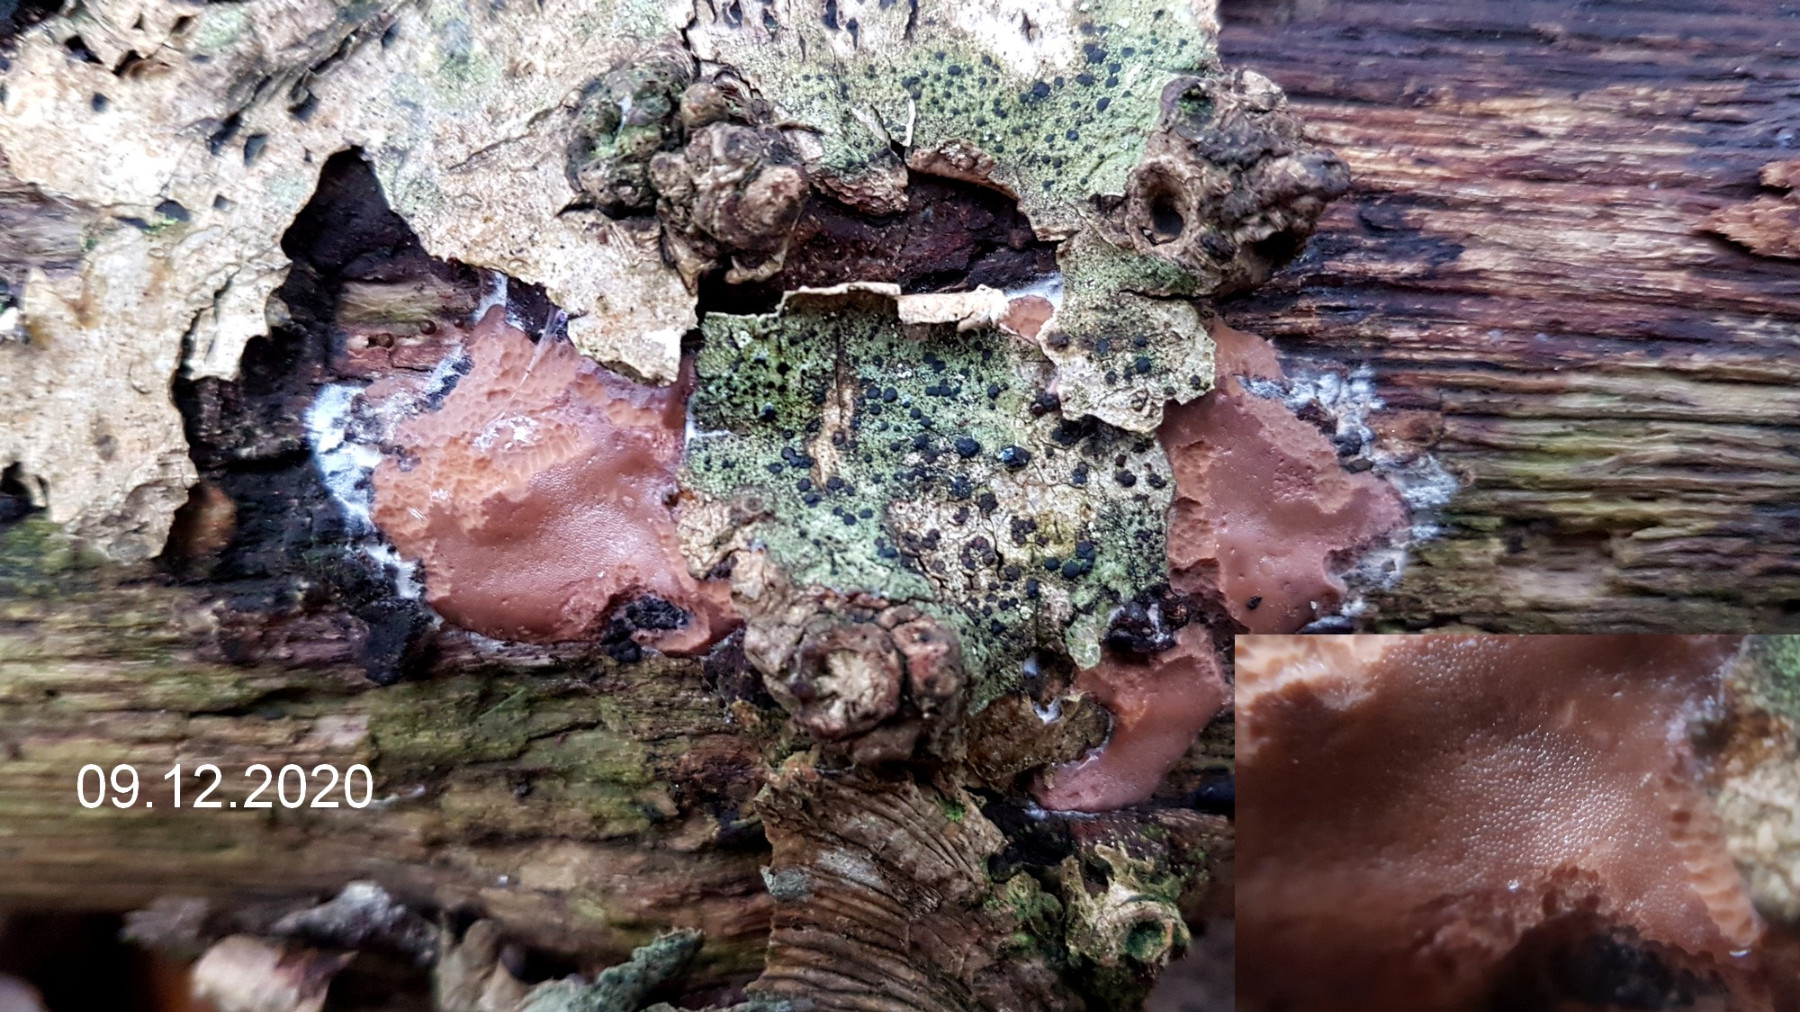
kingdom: Protozoa
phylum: Mycetozoa
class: Myxomycetes
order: Trichiales
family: Dictydiaethaliaceae
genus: Dictydiaethalium
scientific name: Dictydiaethalium plumbeum
